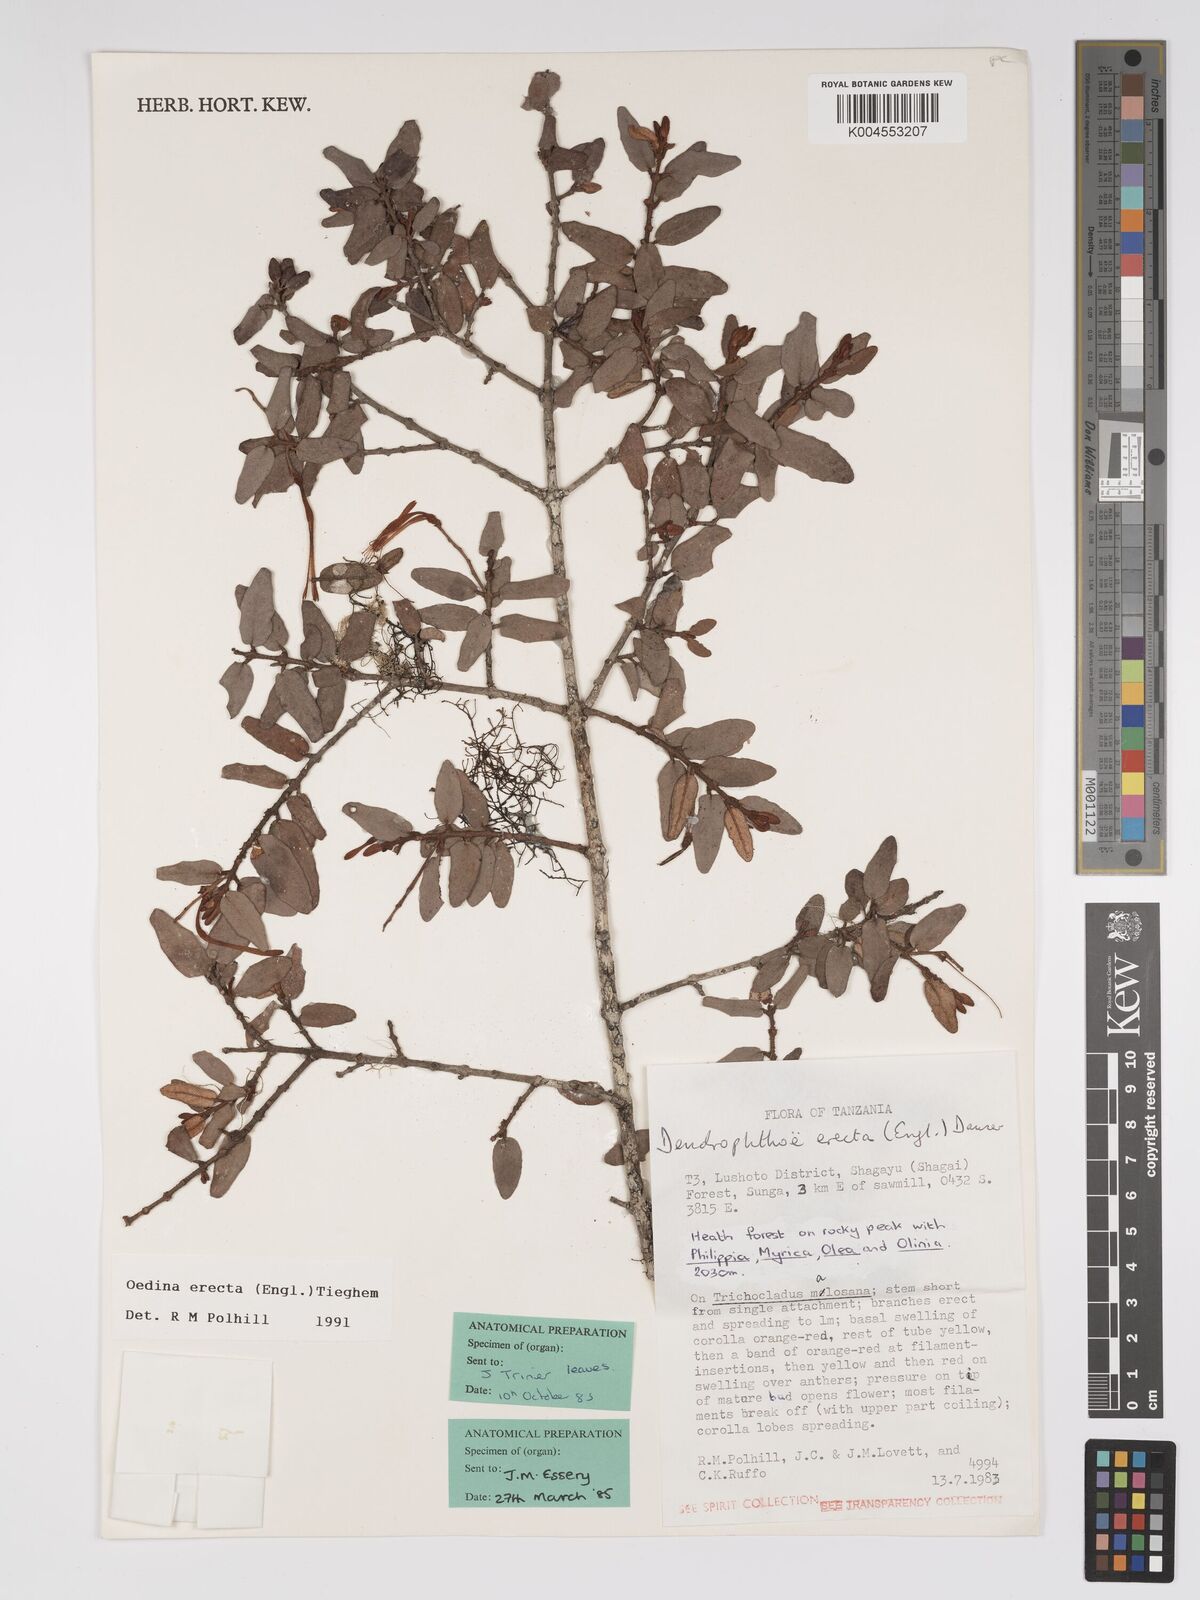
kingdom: Plantae
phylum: Tracheophyta
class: Magnoliopsida
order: Santalales
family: Loranthaceae
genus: Oedina
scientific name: Oedina erecta
